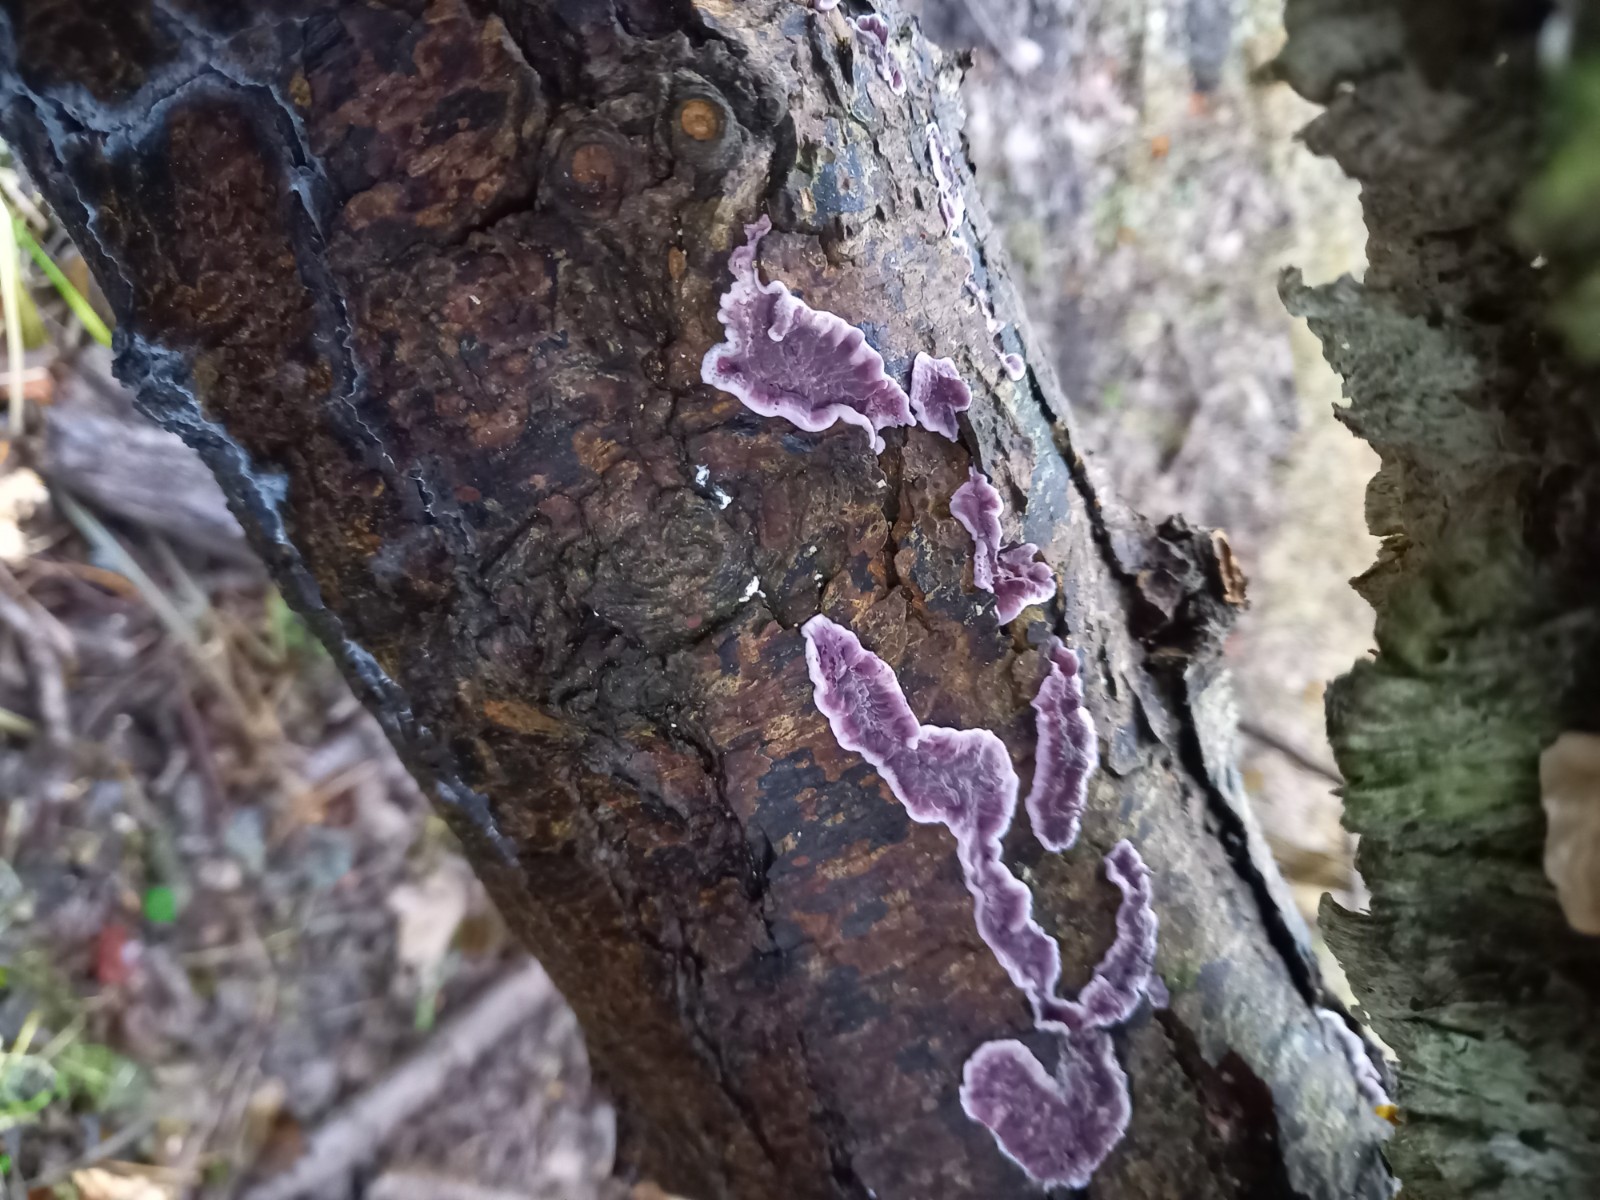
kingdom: Fungi
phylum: Basidiomycota
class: Agaricomycetes
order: Agaricales
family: Cyphellaceae
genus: Chondrostereum
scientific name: Chondrostereum purpureum
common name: purpurlædersvamp
